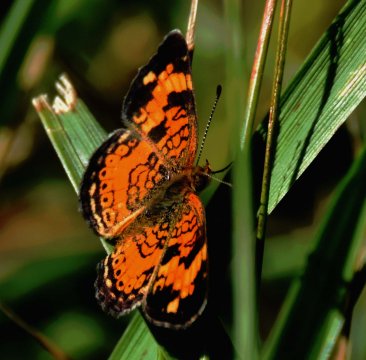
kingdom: Animalia
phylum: Arthropoda
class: Insecta
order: Lepidoptera
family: Nymphalidae
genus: Phyciodes
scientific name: Phyciodes tharos
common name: Pearl Crescent
